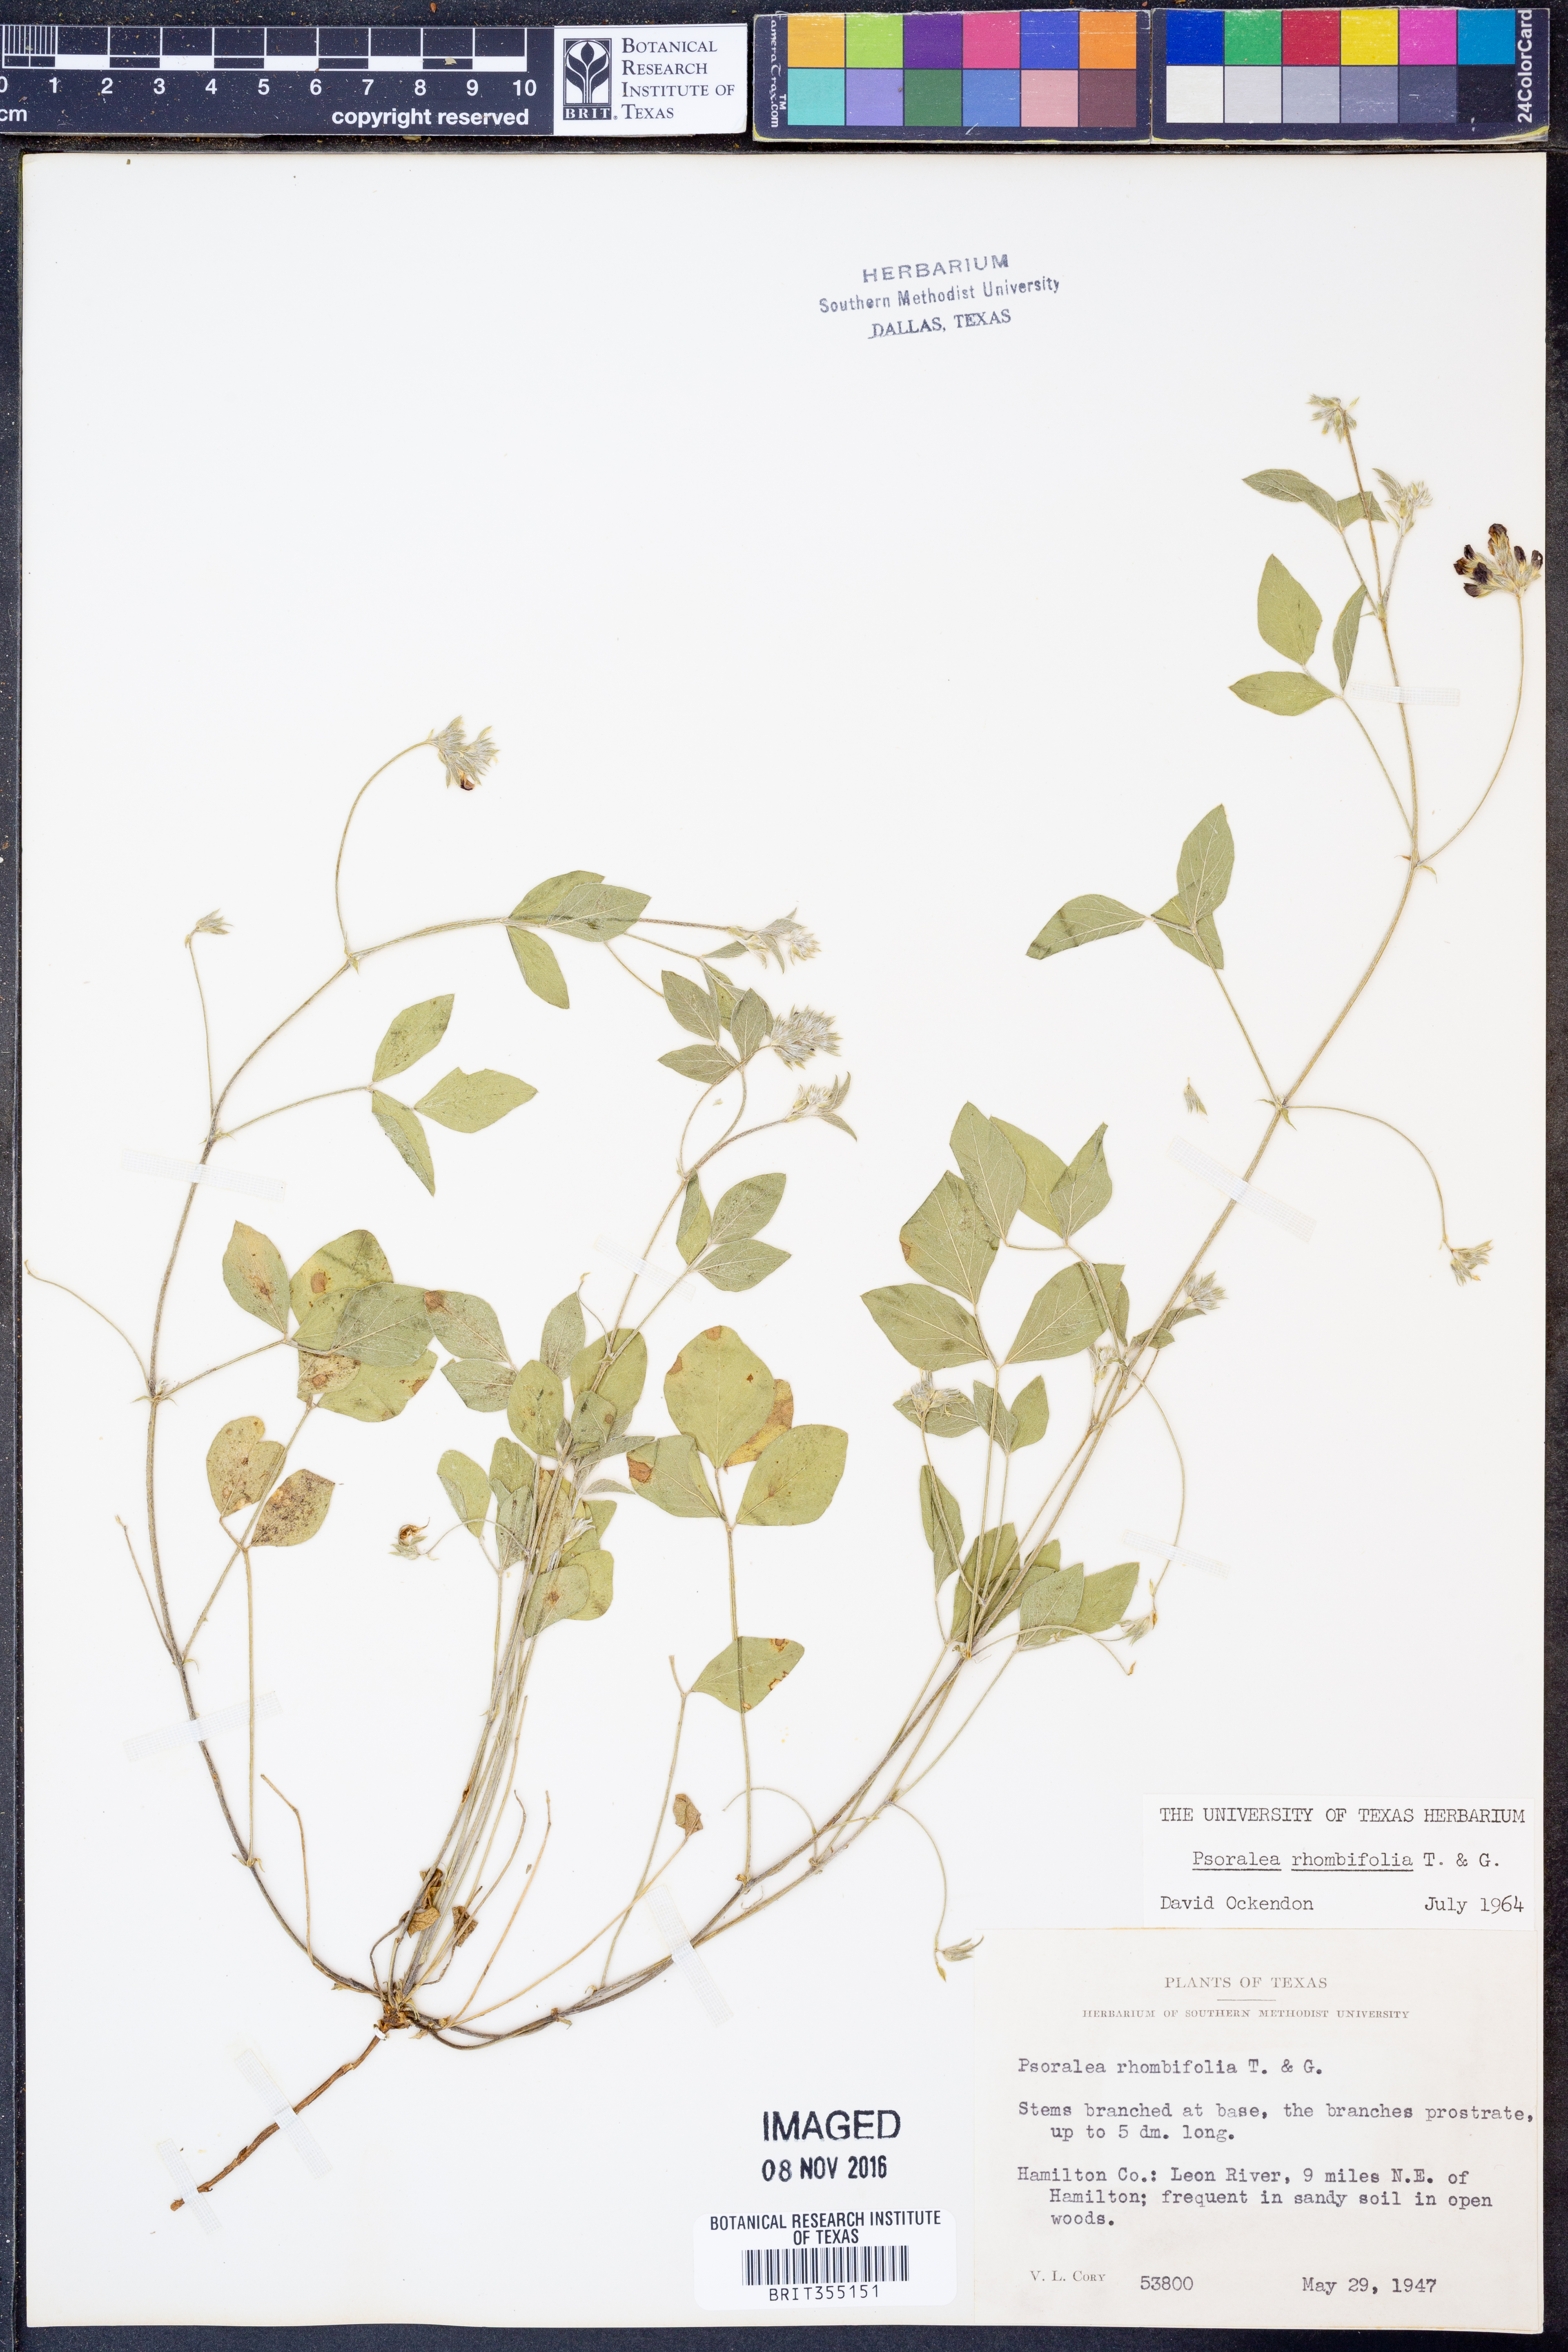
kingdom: Plantae
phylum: Tracheophyta
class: Magnoliopsida
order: Fabales
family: Fabaceae
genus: Pediomelum
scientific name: Pediomelum rhombifolium
